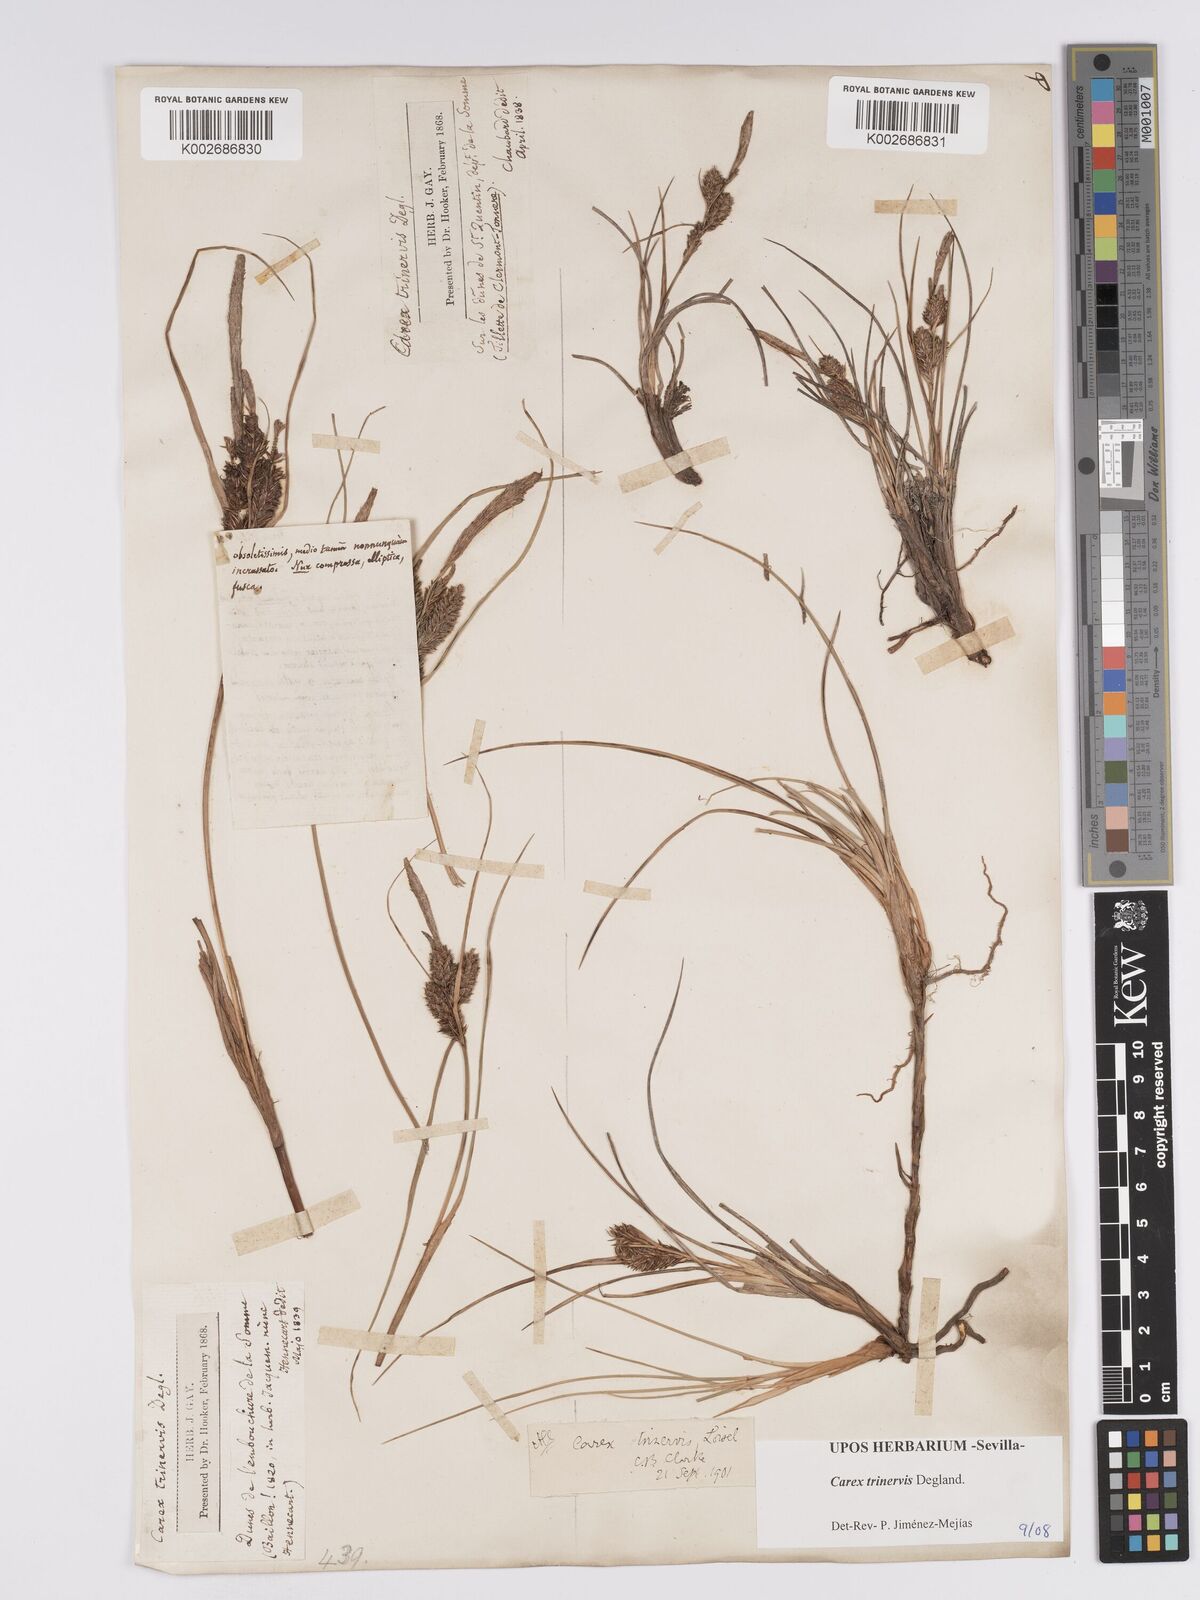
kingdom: Plantae
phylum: Tracheophyta
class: Liliopsida
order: Poales
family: Cyperaceae
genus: Carex
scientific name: Carex trinervis
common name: Three-nerved sedge
